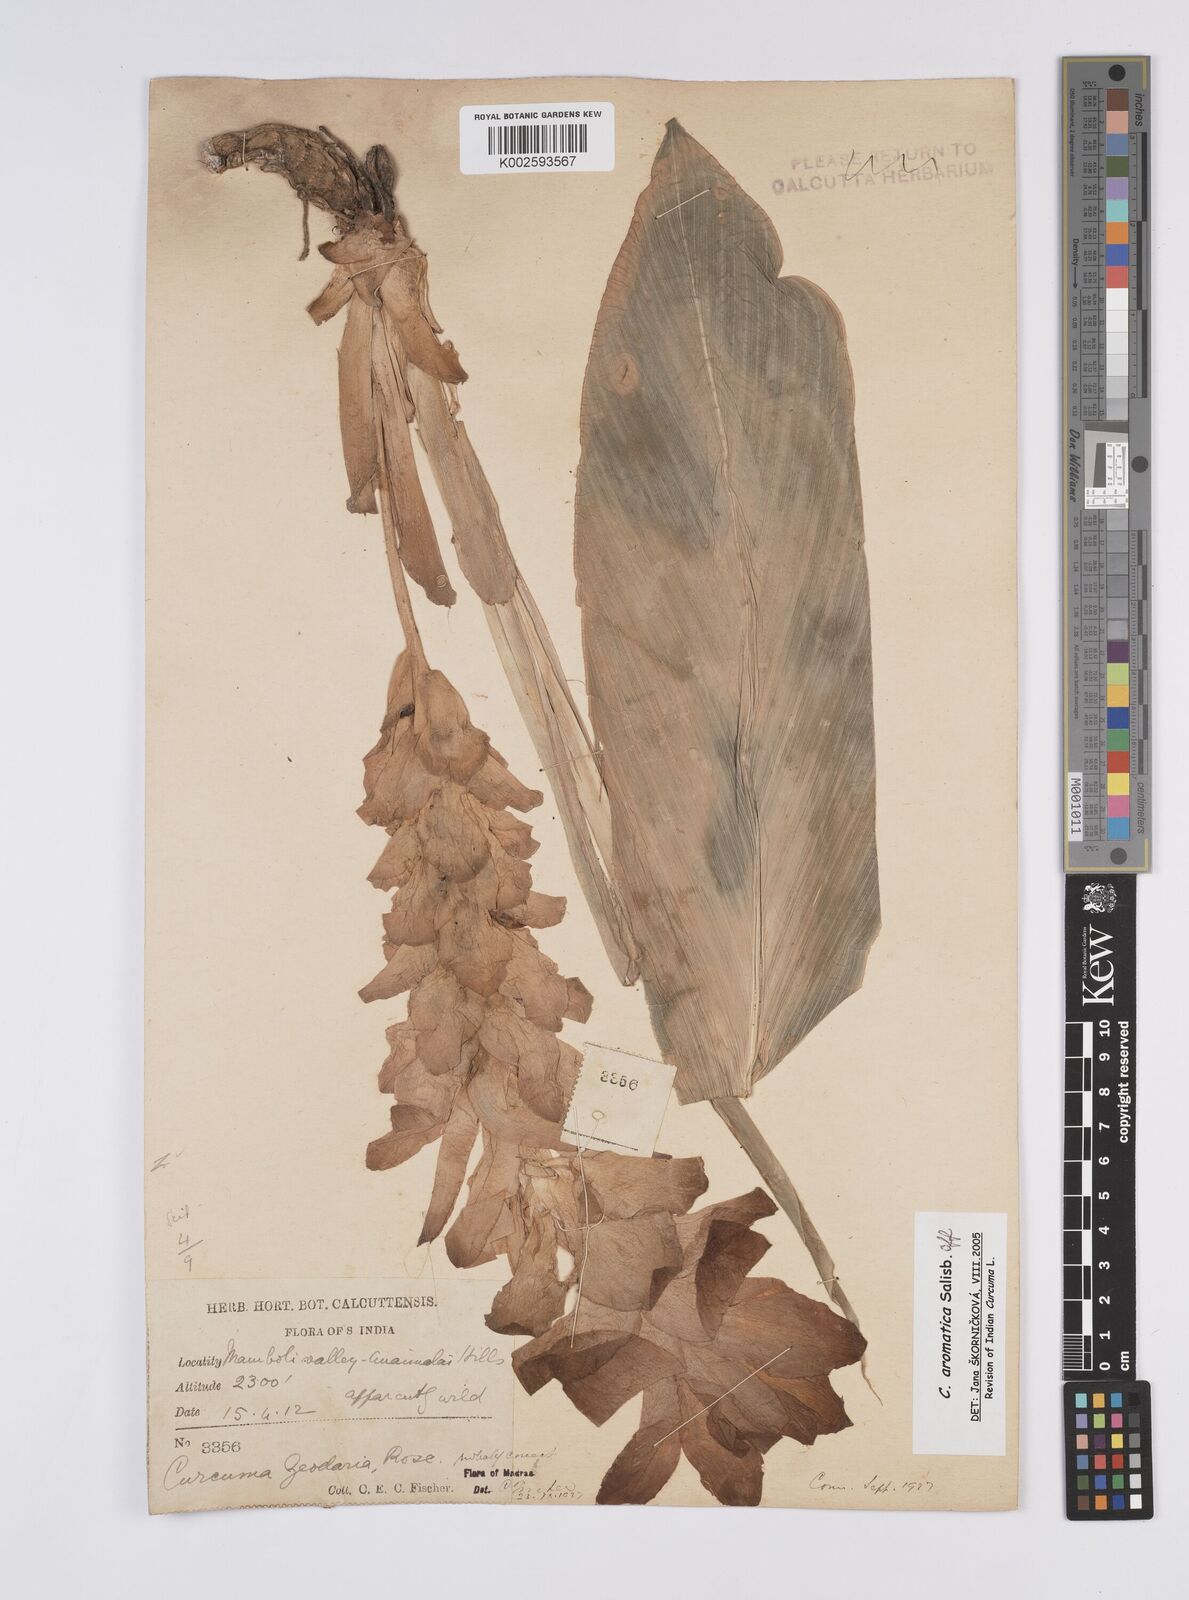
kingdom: Plantae
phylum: Tracheophyta
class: Liliopsida
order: Zingiberales
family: Zingiberaceae
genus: Curcuma
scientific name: Curcuma aromatica
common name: Wild turmeric
